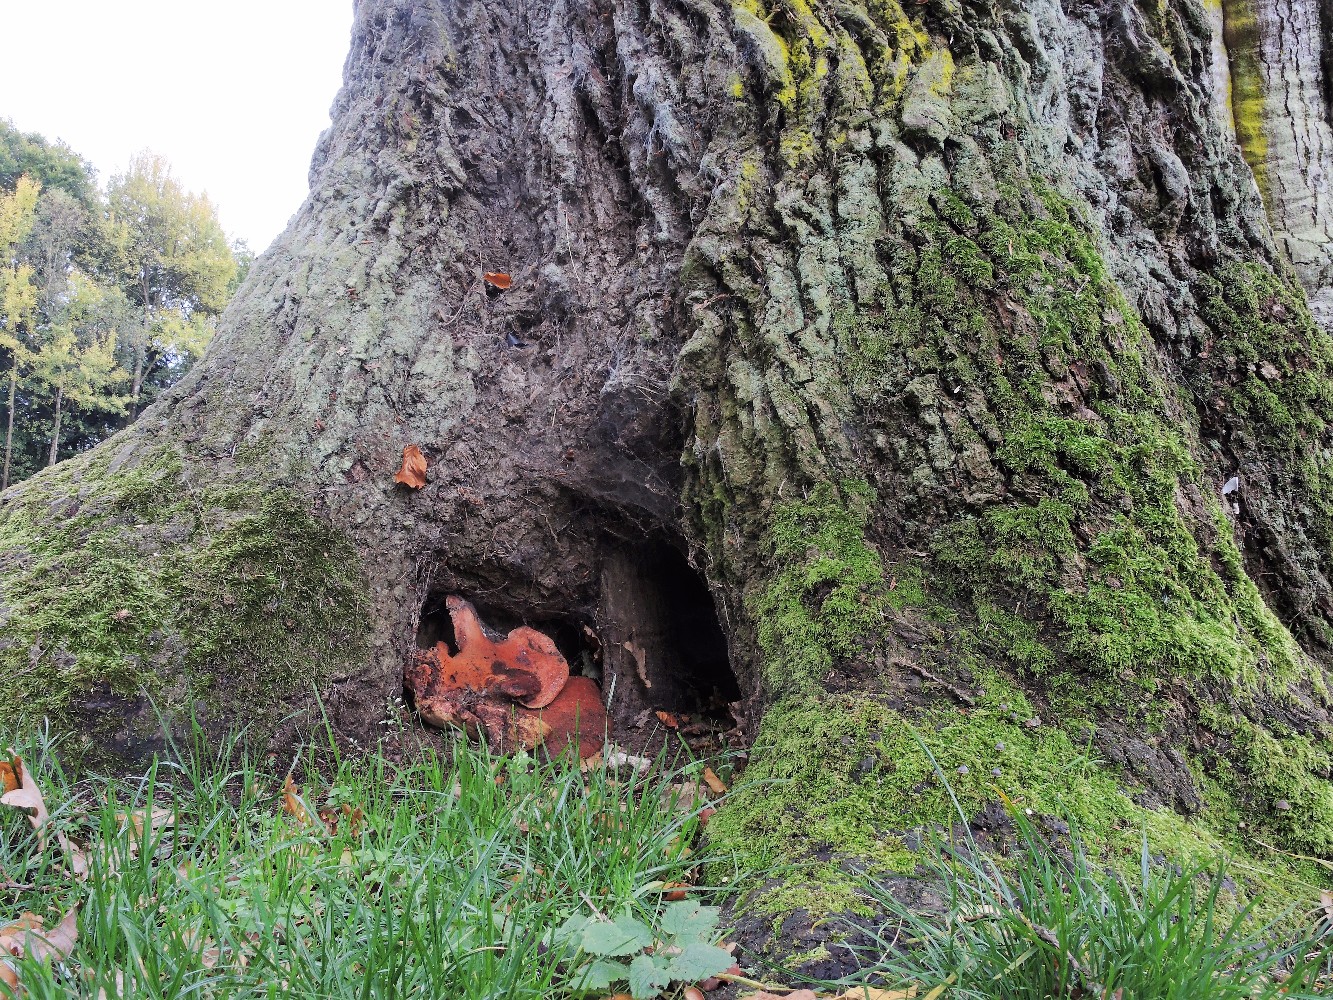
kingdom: Fungi
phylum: Basidiomycota
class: Agaricomycetes
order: Agaricales
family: Fistulinaceae
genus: Fistulina
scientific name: Fistulina hepatica
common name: oksetunge
